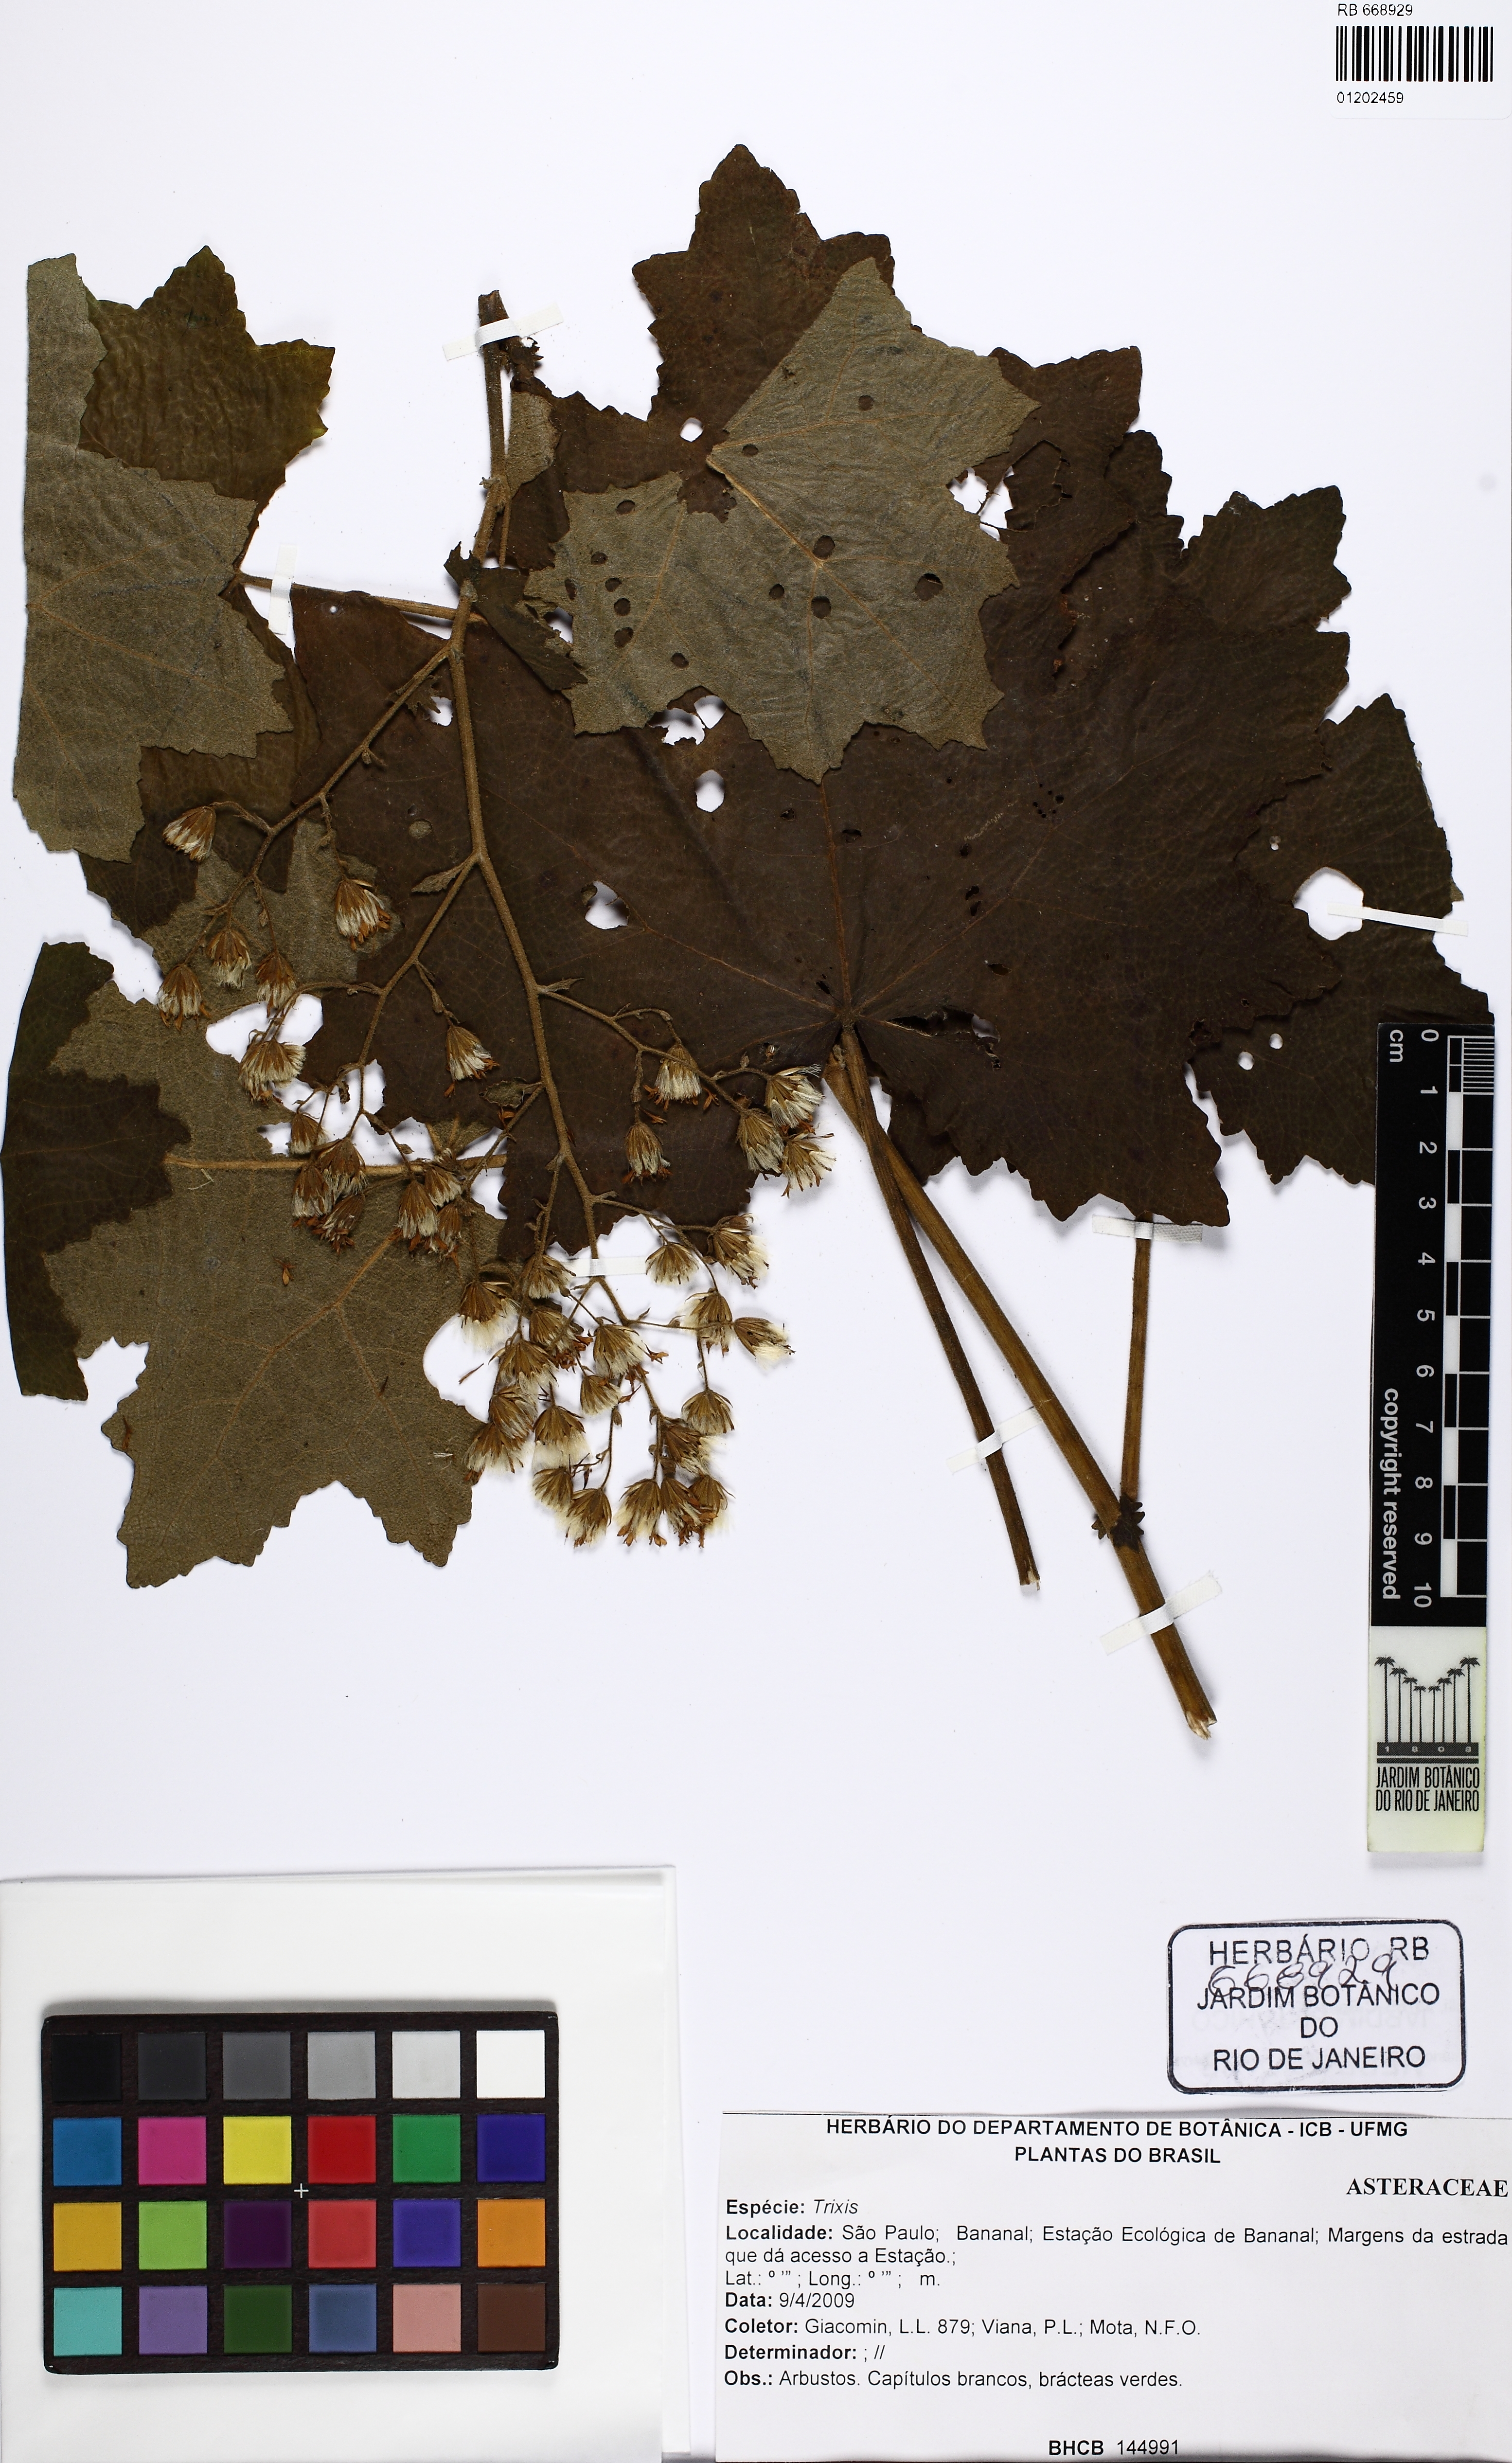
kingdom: Plantae
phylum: Tracheophyta
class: Magnoliopsida
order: Asterales
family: Asteraceae
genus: Jungia
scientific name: Jungia sellowii
